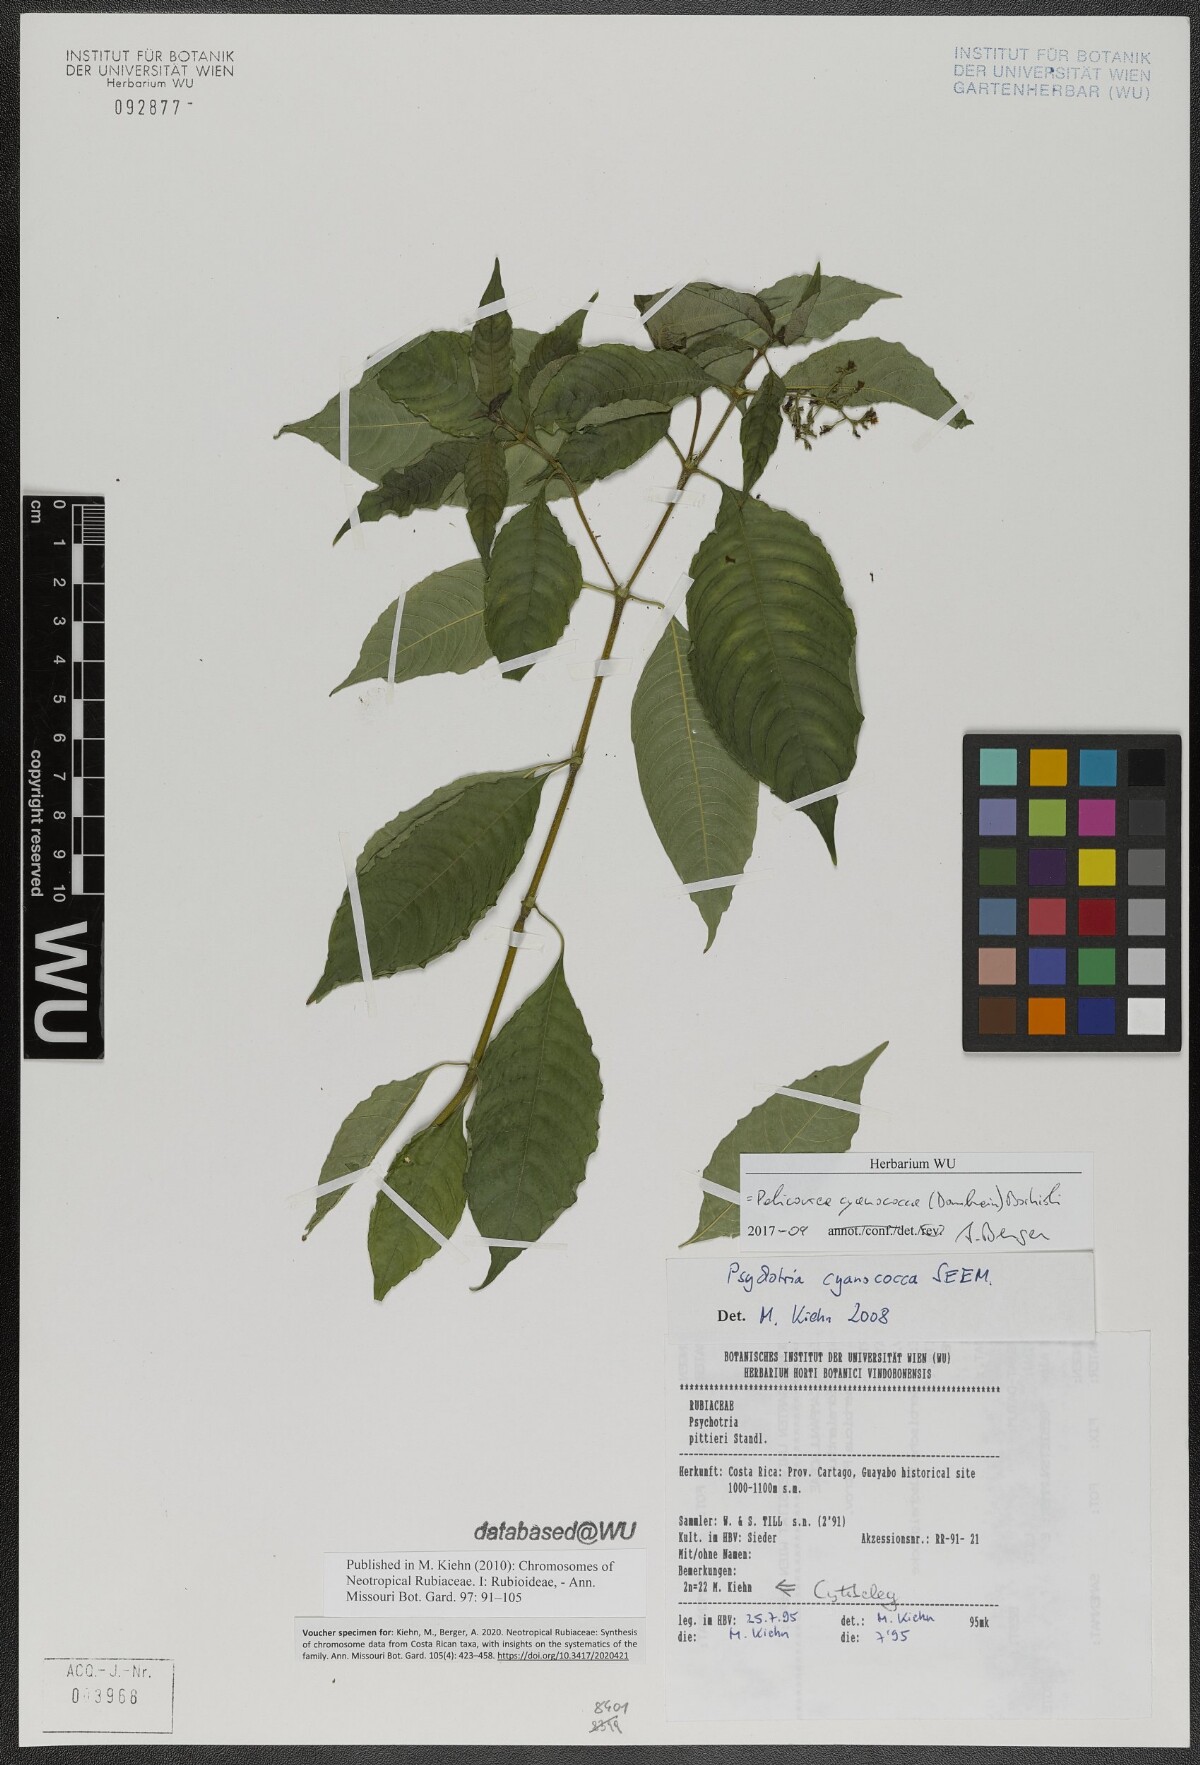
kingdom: Plantae
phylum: Tracheophyta
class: Magnoliopsida
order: Gentianales
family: Rubiaceae
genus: Palicourea
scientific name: Palicourea cyanococca
